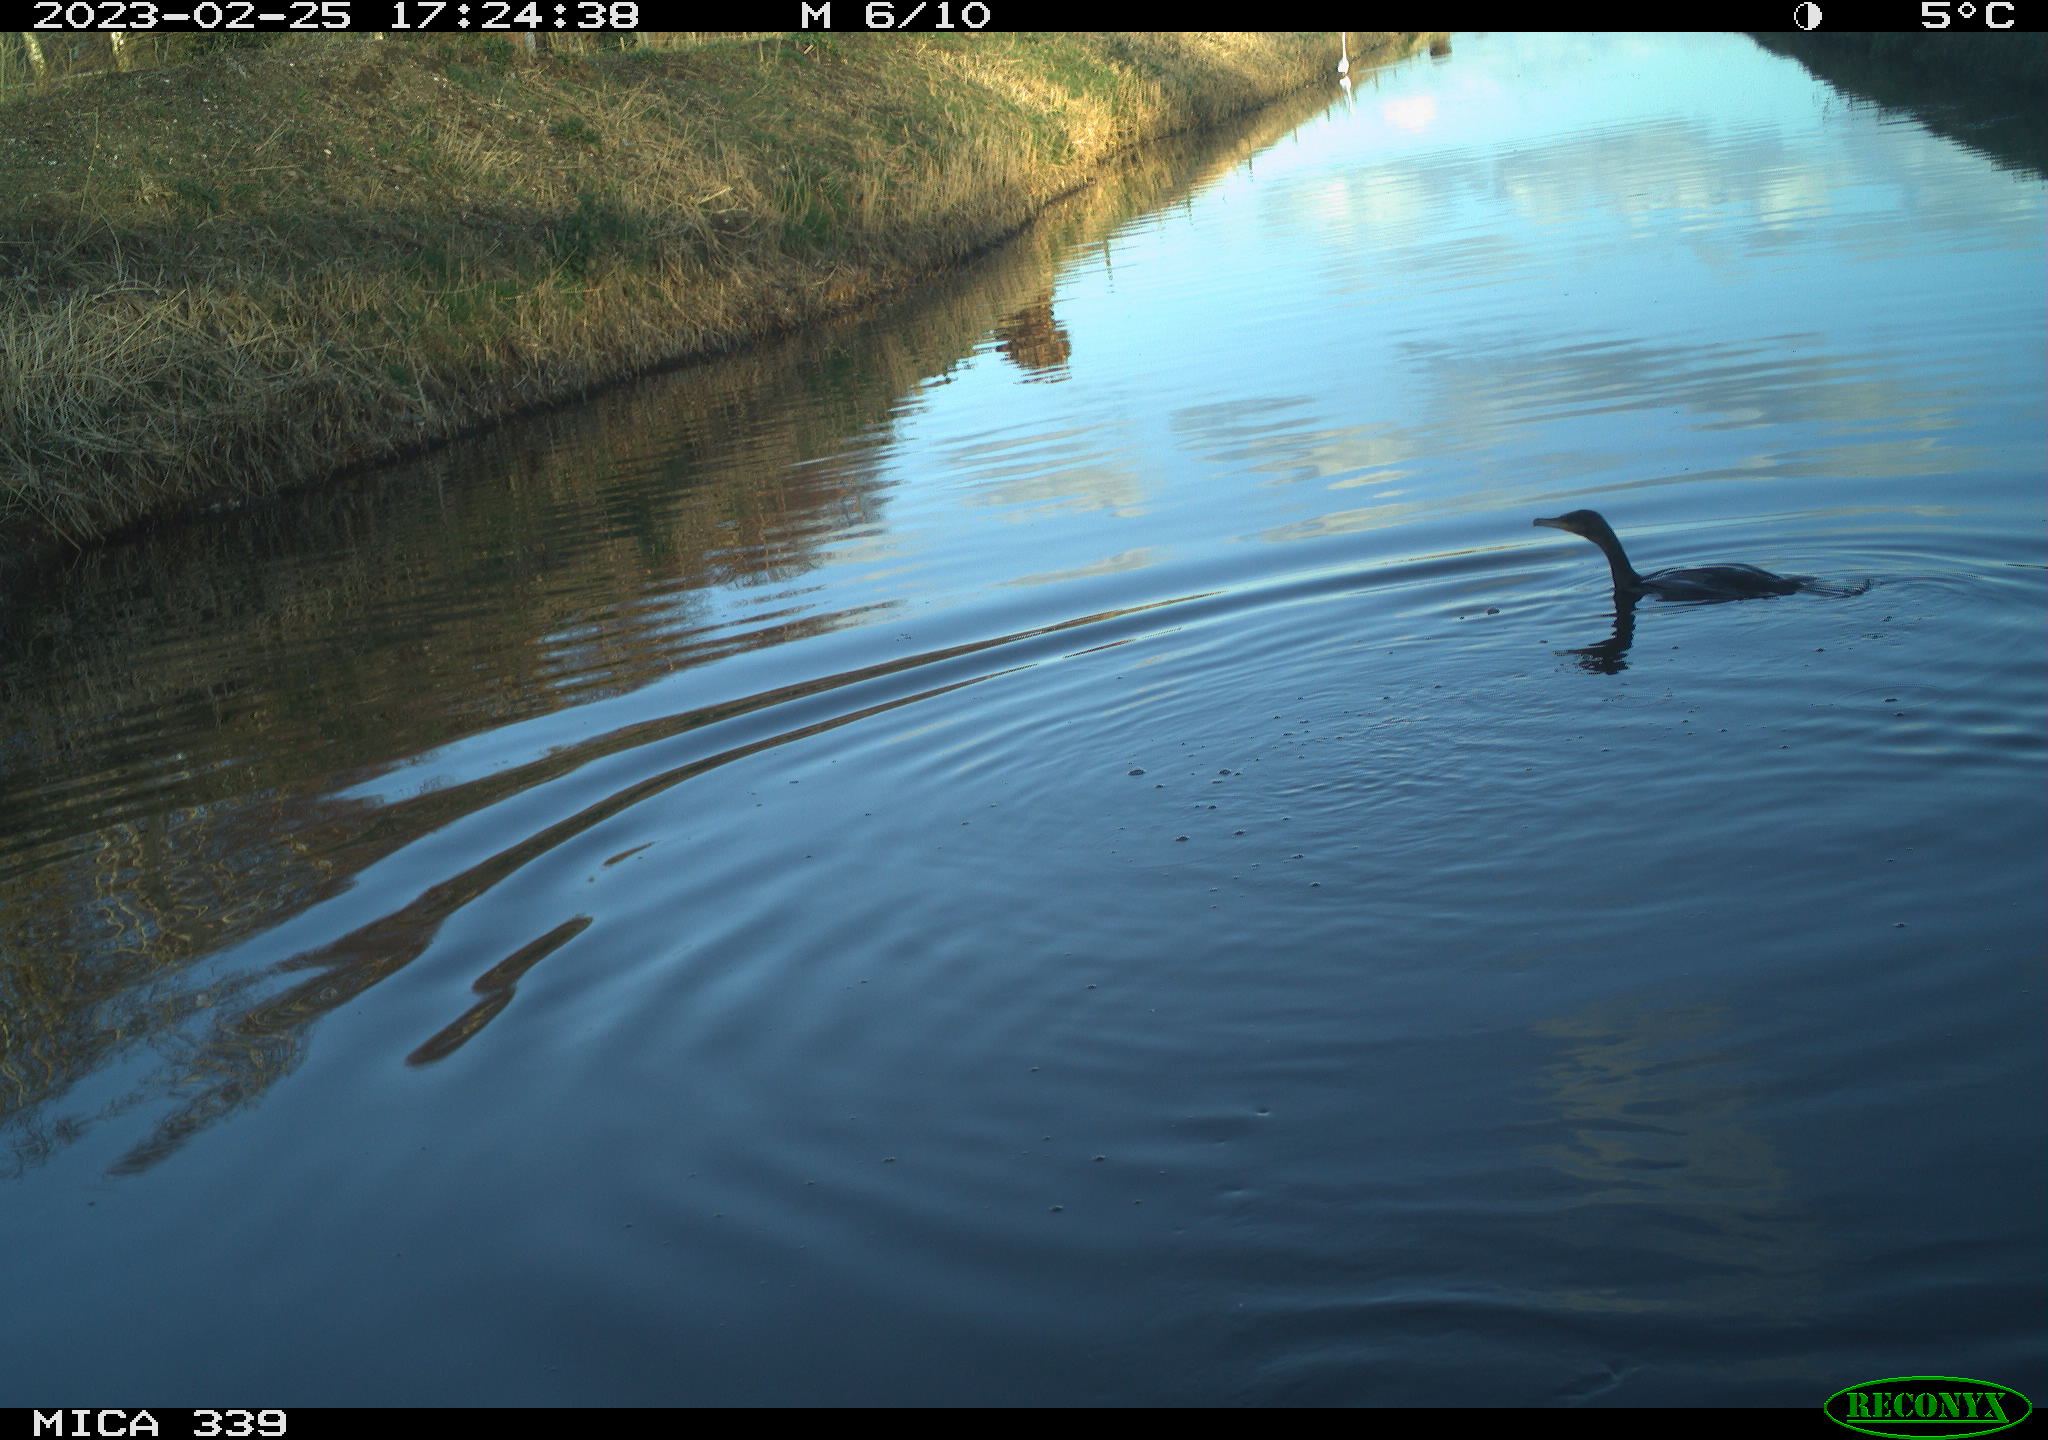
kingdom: Animalia
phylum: Chordata
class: Aves
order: Suliformes
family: Phalacrocoracidae
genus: Phalacrocorax
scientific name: Phalacrocorax carbo
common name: Great cormorant
